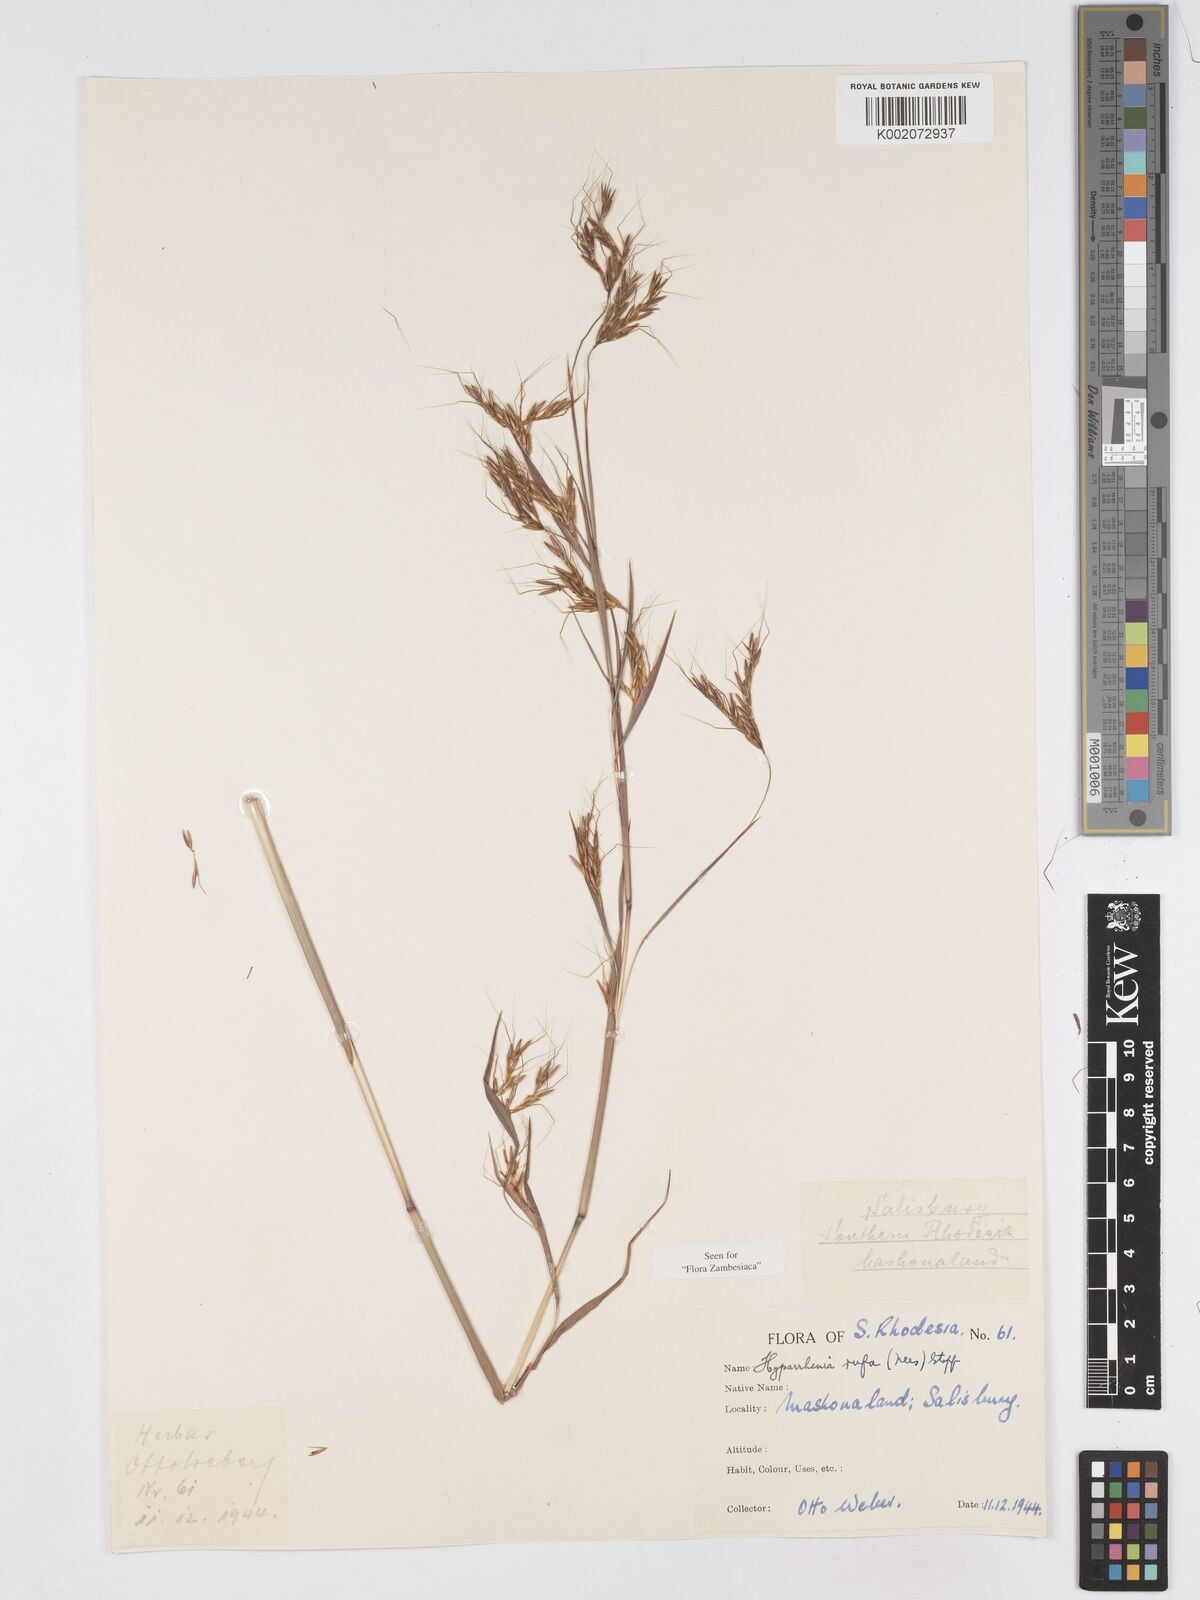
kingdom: Plantae
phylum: Tracheophyta
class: Liliopsida
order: Poales
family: Poaceae
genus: Hyparrhenia
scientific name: Hyparrhenia rufa
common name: Jaraguagrass
